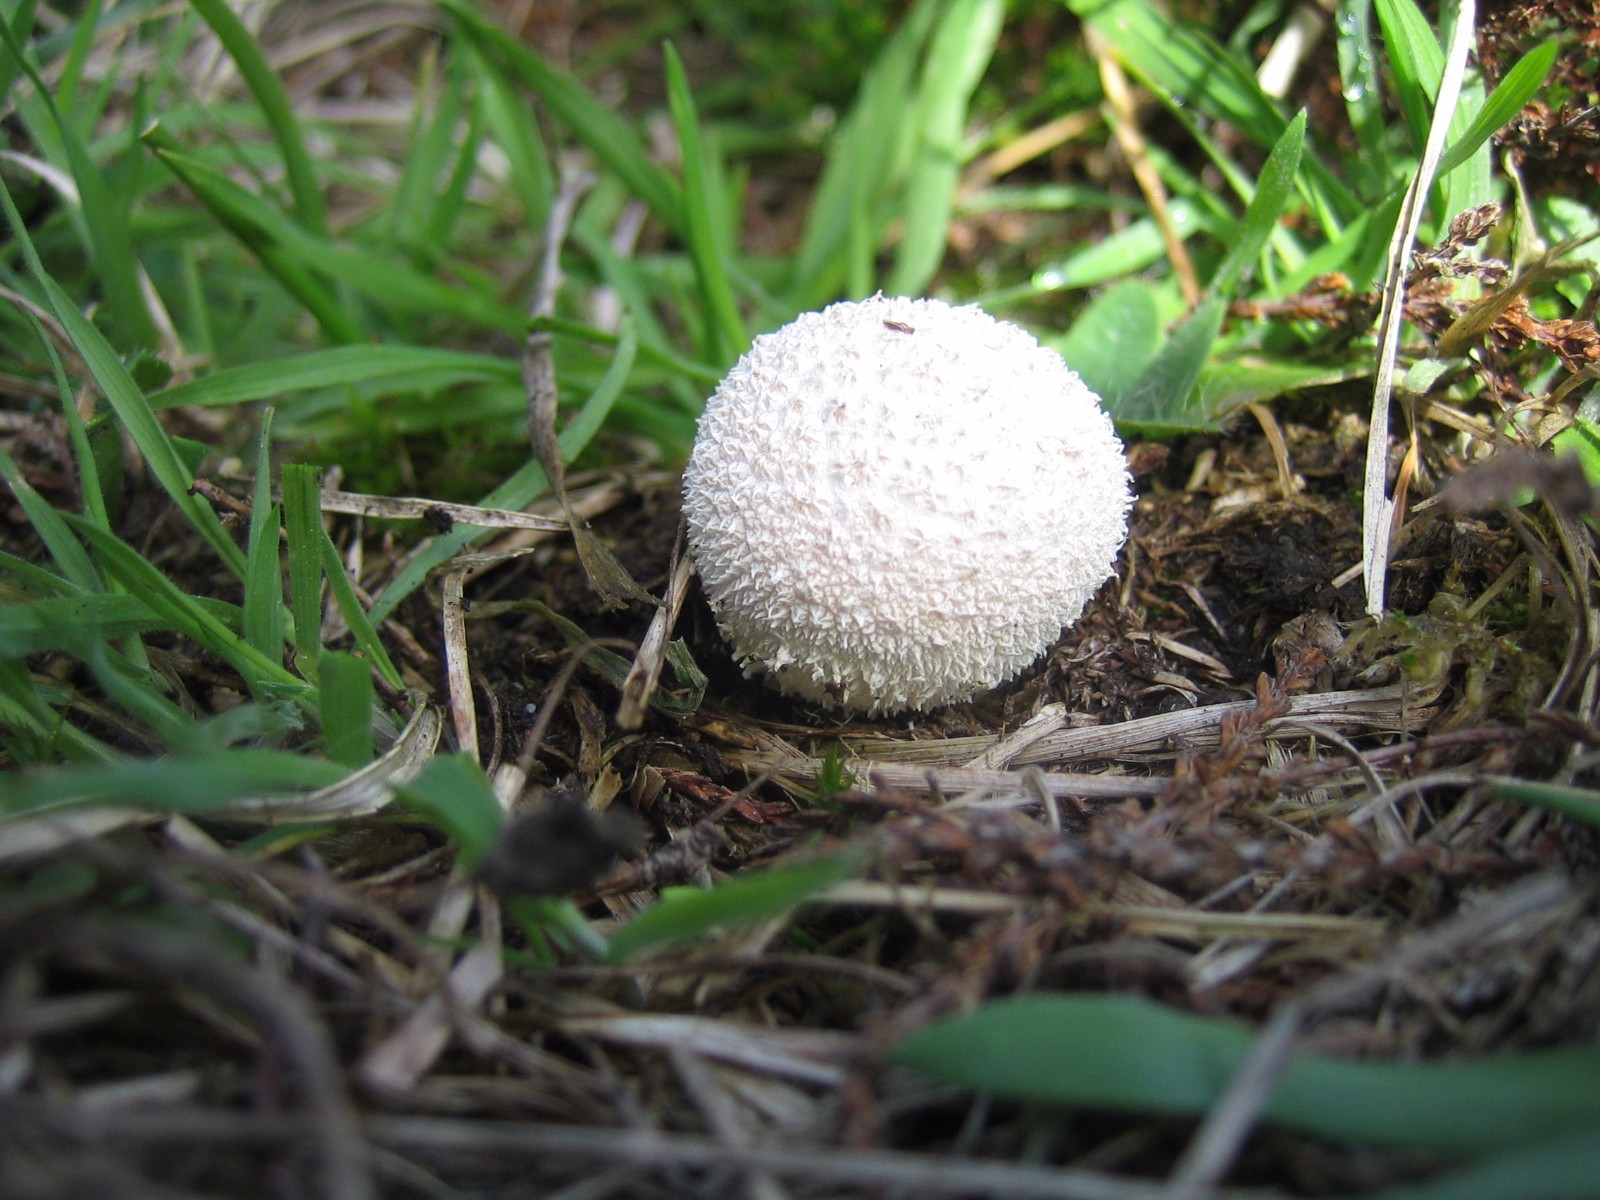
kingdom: Fungi
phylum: Basidiomycota
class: Agaricomycetes
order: Agaricales
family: Lycoperdaceae
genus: Lycoperdon
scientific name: Lycoperdon perlatum
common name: krystal-støvbold
